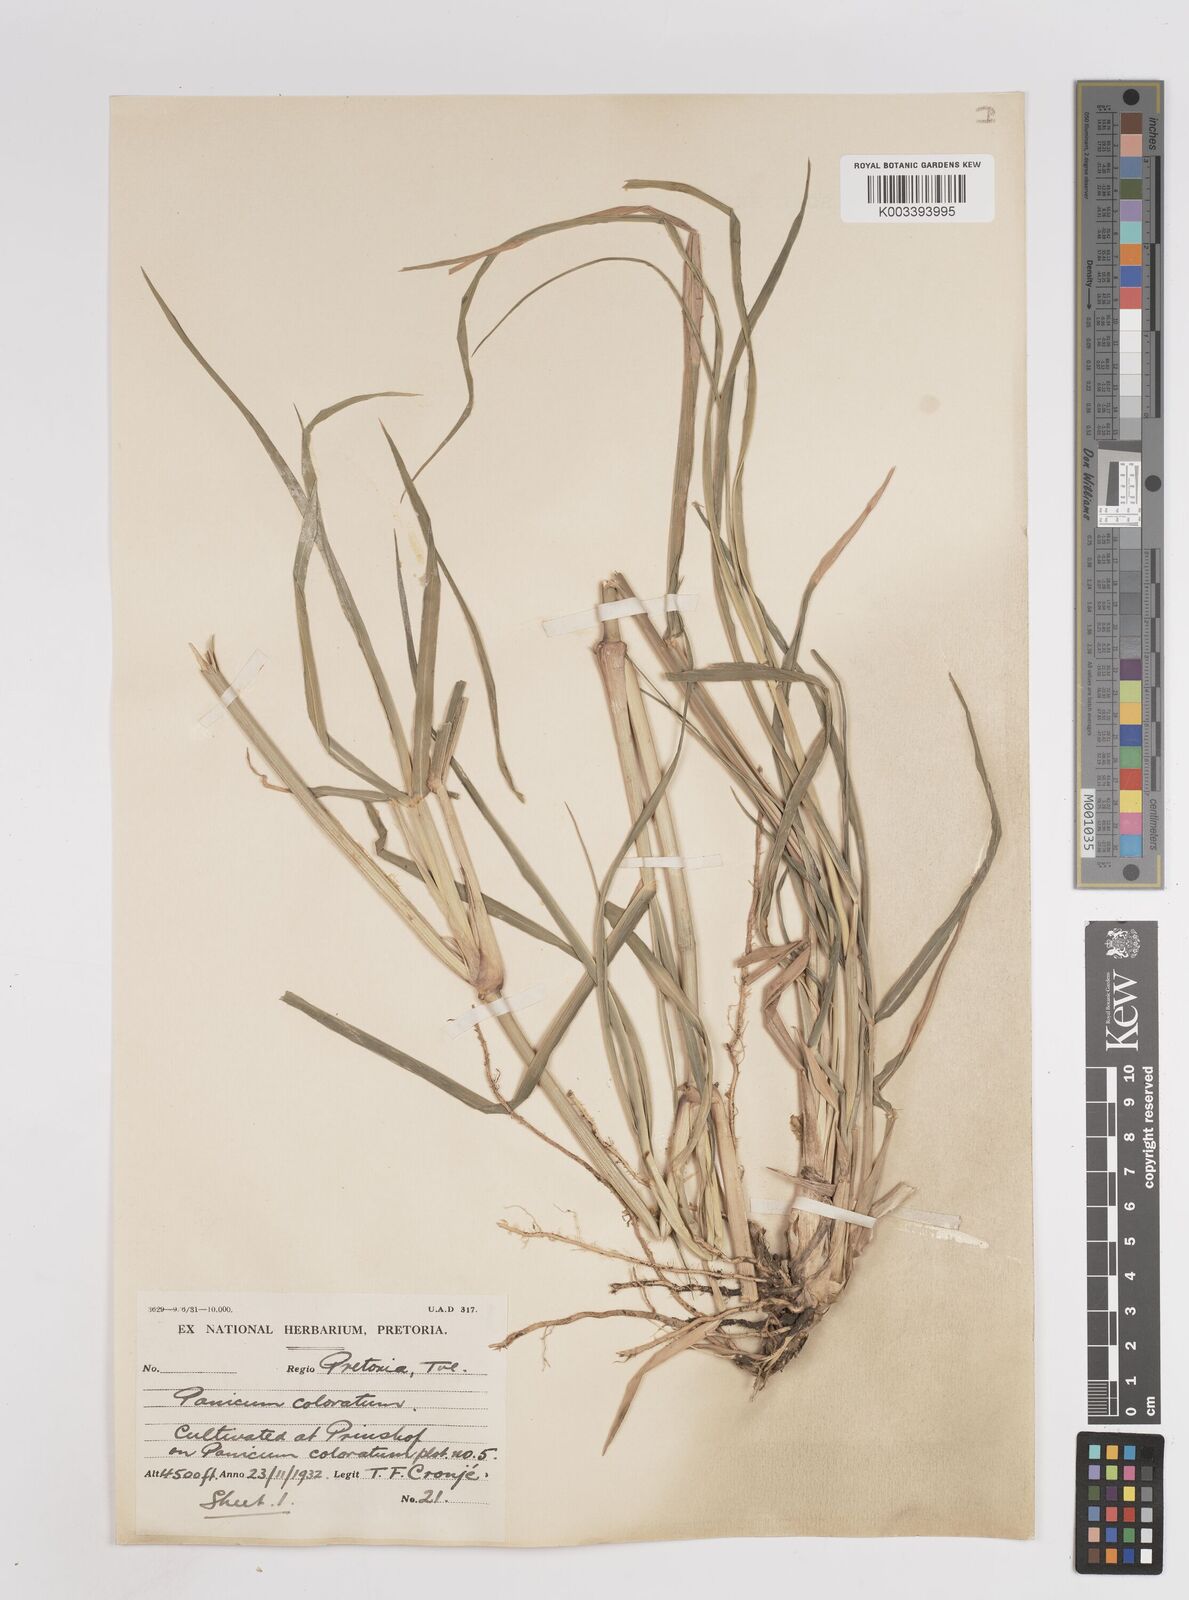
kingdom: Plantae
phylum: Tracheophyta
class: Liliopsida
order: Poales
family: Poaceae
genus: Panicum
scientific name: Panicum coloratum
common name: Kleingrass
